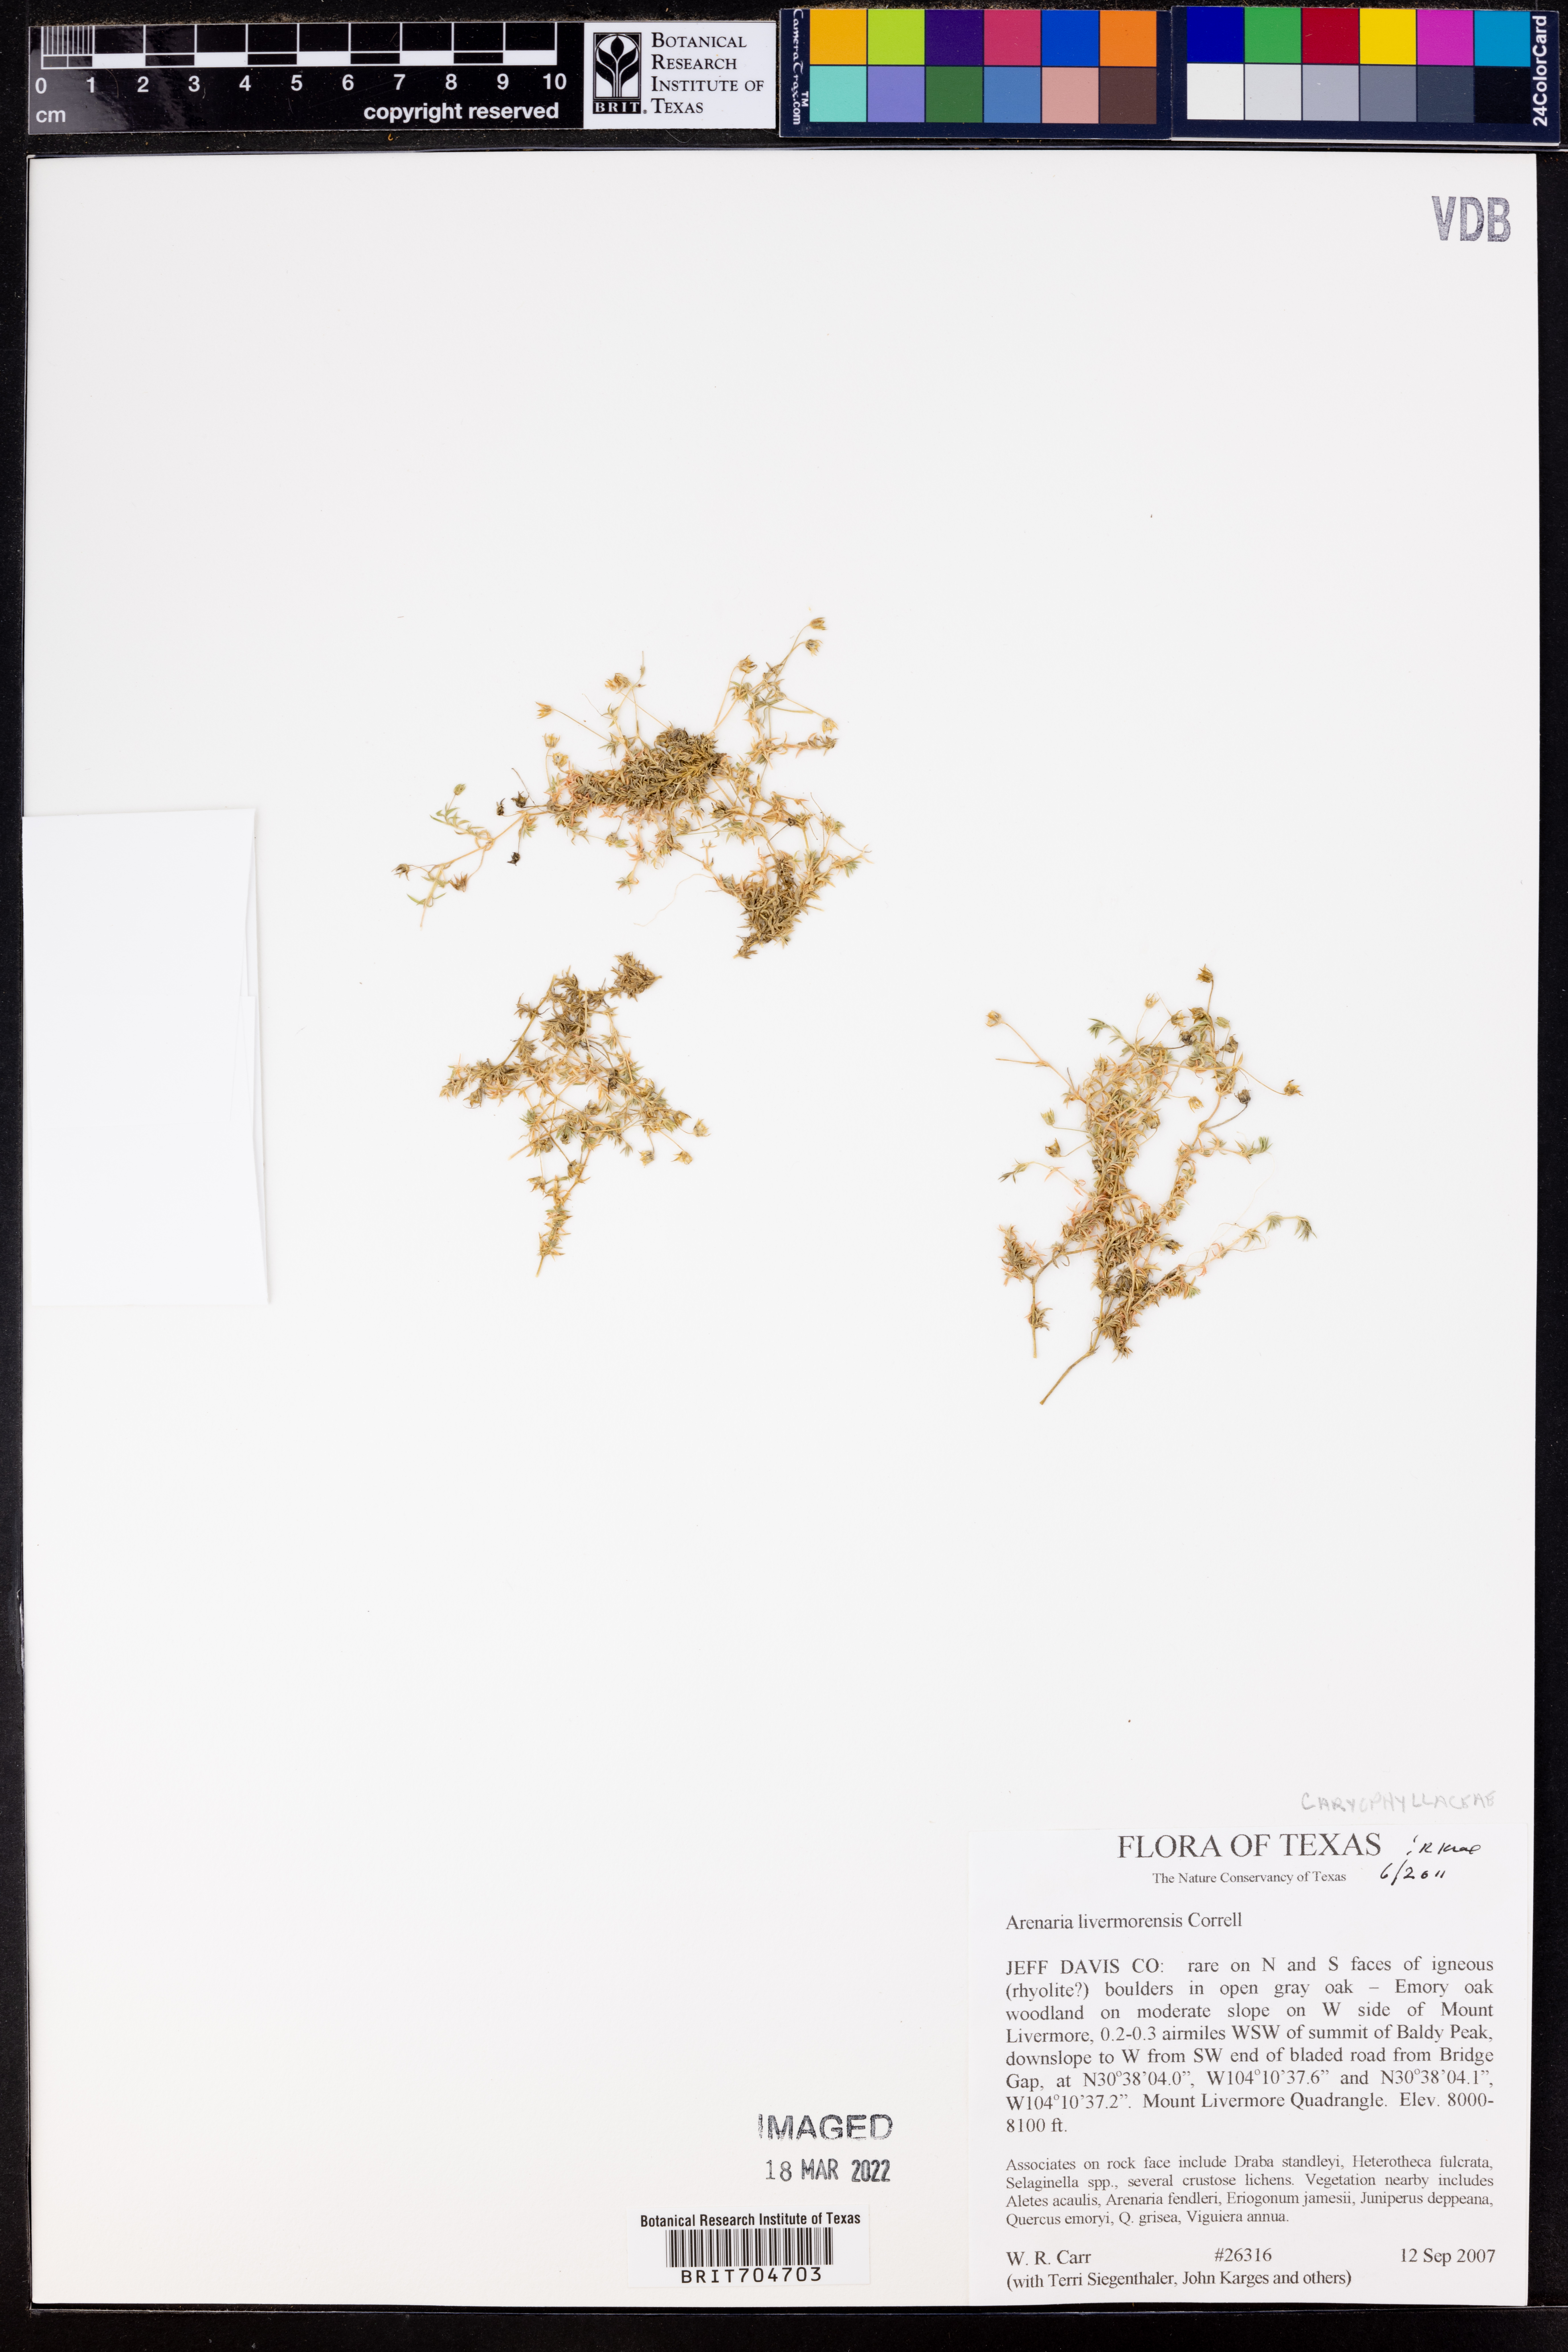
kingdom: Plantae
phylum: Tracheophyta
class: Magnoliopsida
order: Caryophyllales
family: Caryophyllaceae
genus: Arenaria
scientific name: Arenaria livermorensis
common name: Livermore sandwort
